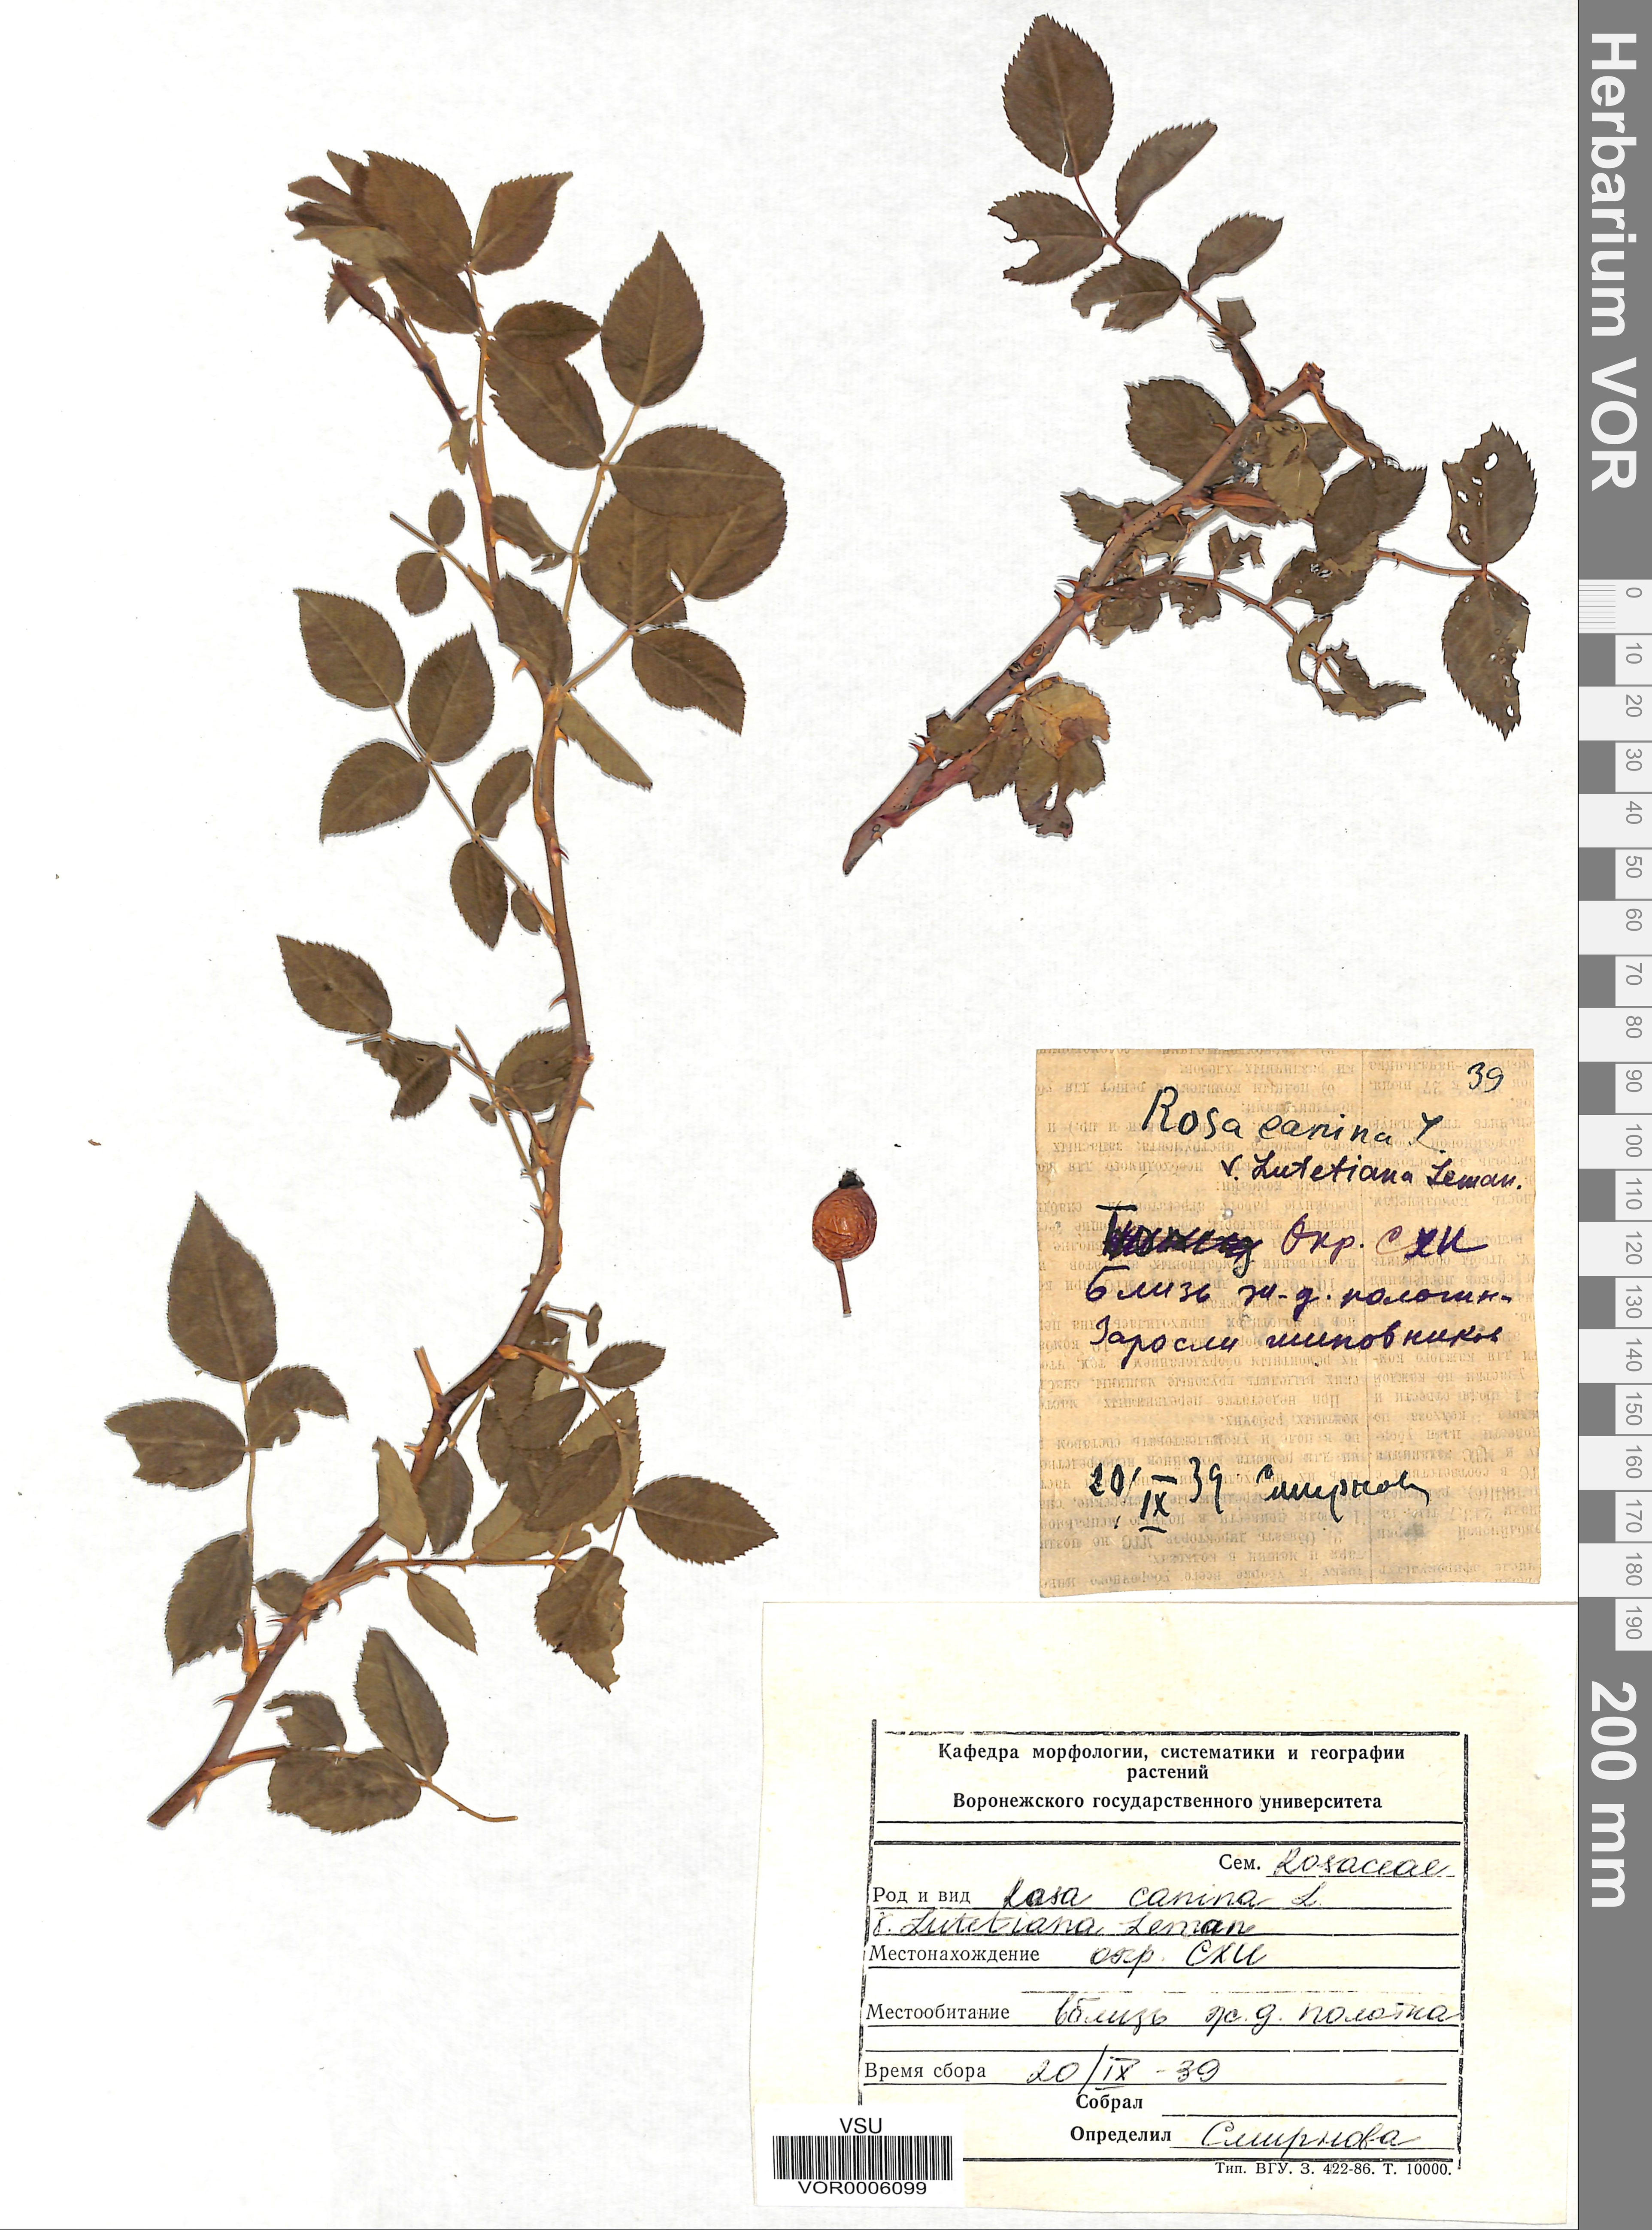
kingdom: Plantae
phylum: Tracheophyta
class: Magnoliopsida
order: Rosales
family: Rosaceae
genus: Rosa
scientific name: Rosa canina
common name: Dog rose
